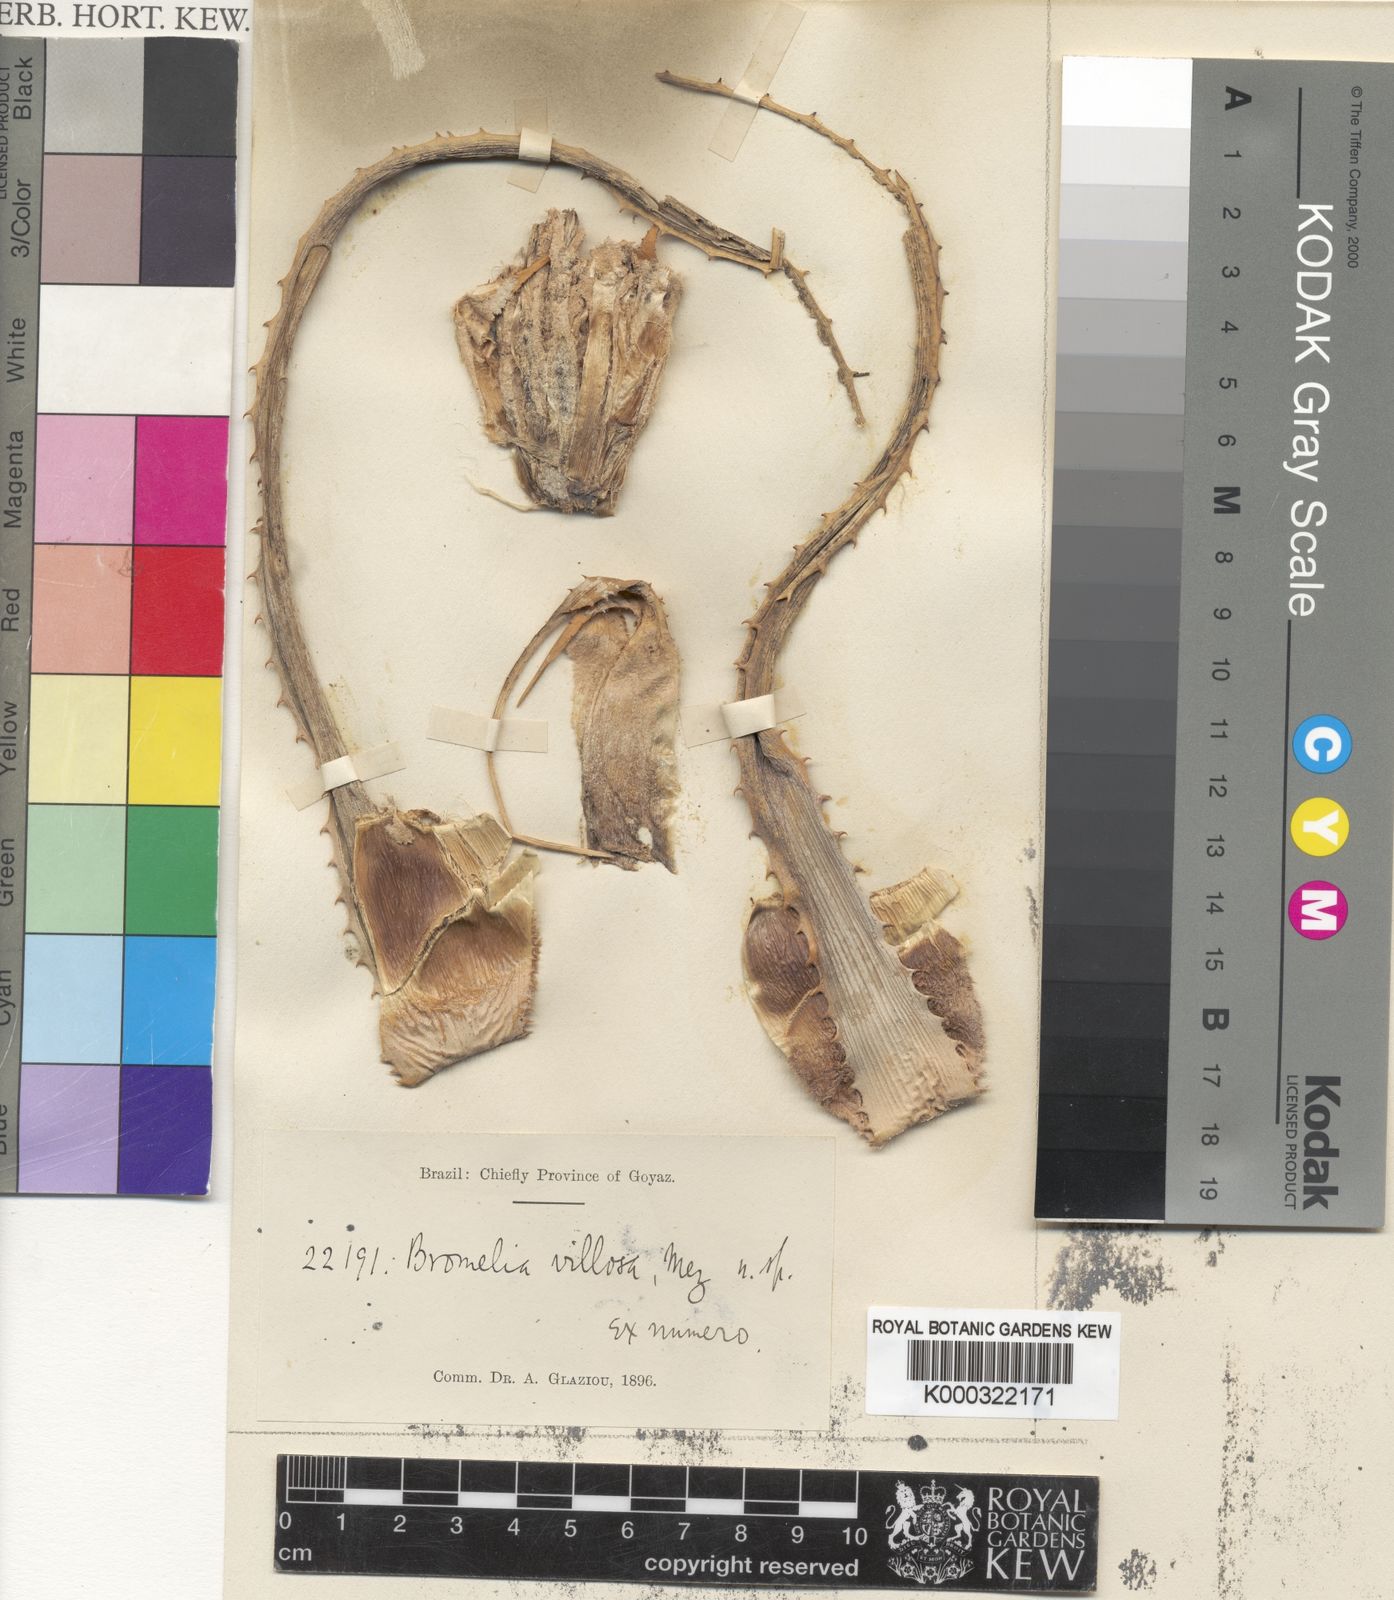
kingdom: Plantae
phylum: Tracheophyta
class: Liliopsida
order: Poales
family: Bromeliaceae
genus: Bromelia
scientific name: Bromelia villosa
